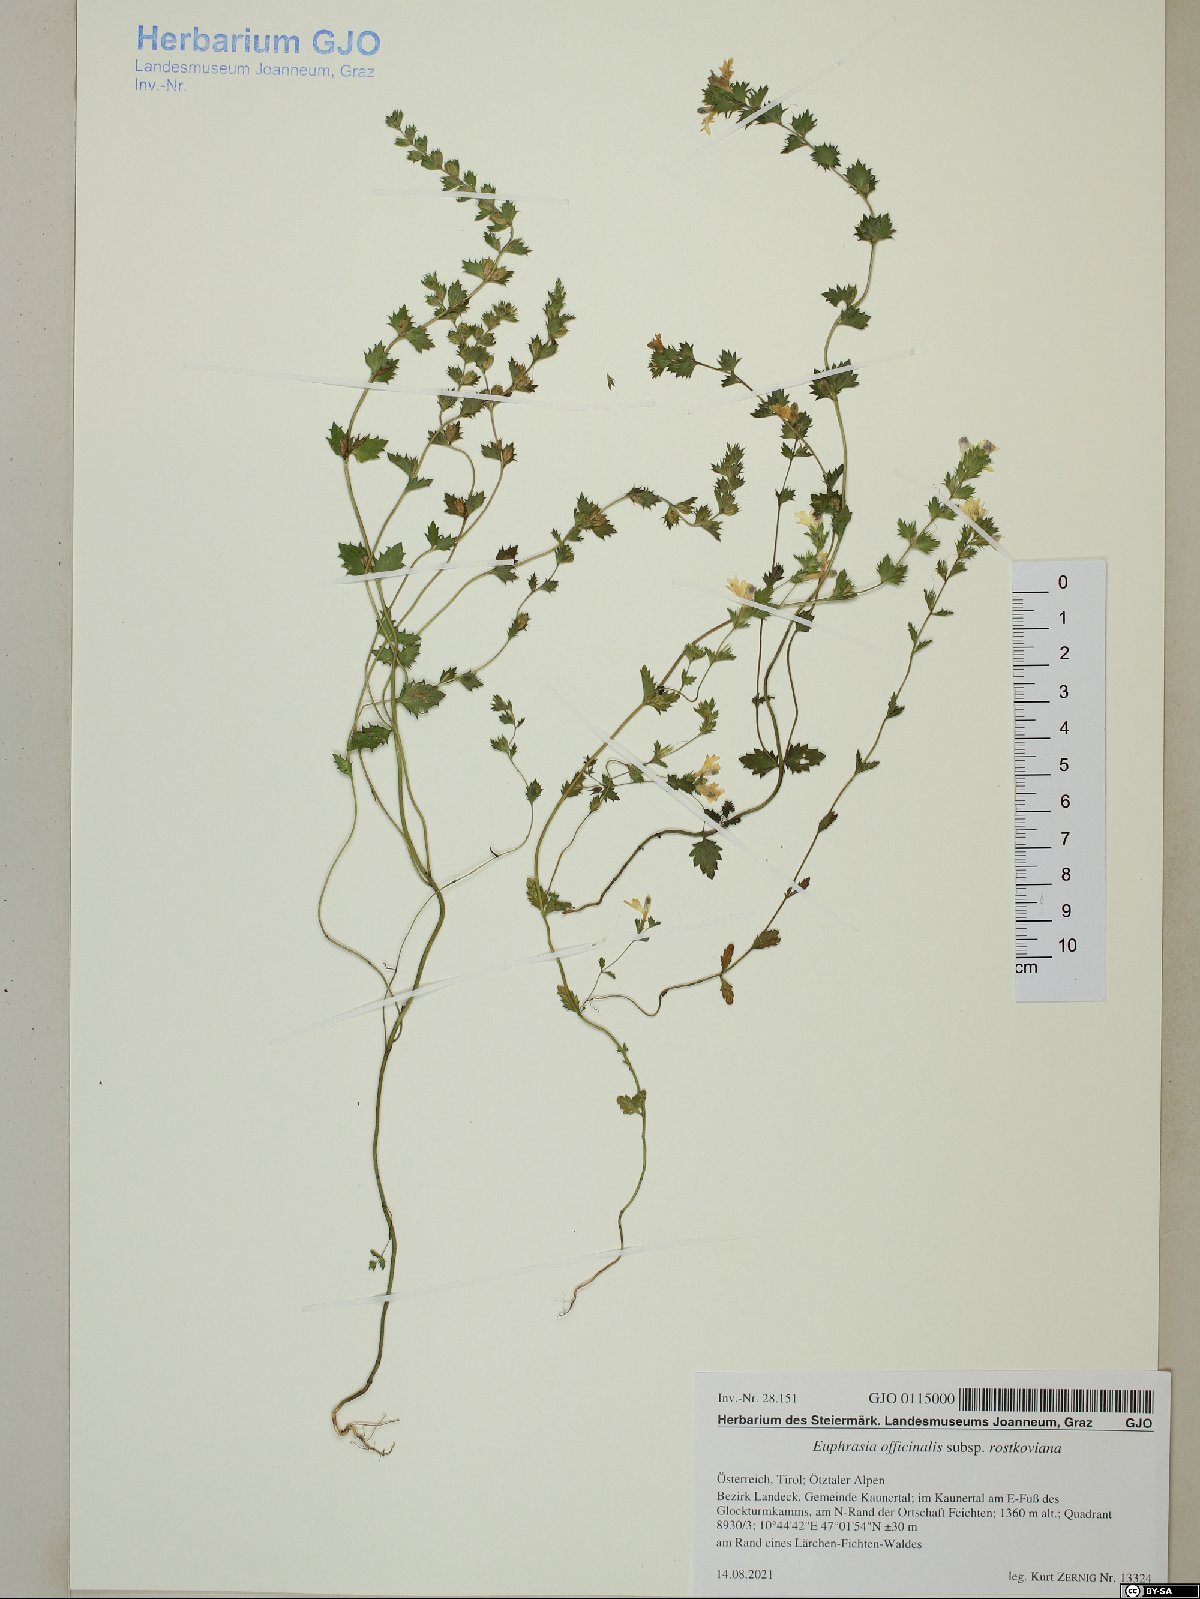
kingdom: Plantae
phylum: Tracheophyta
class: Magnoliopsida
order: Lamiales
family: Orobanchaceae
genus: Euphrasia
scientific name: Euphrasia officinalis
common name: Eyebright
